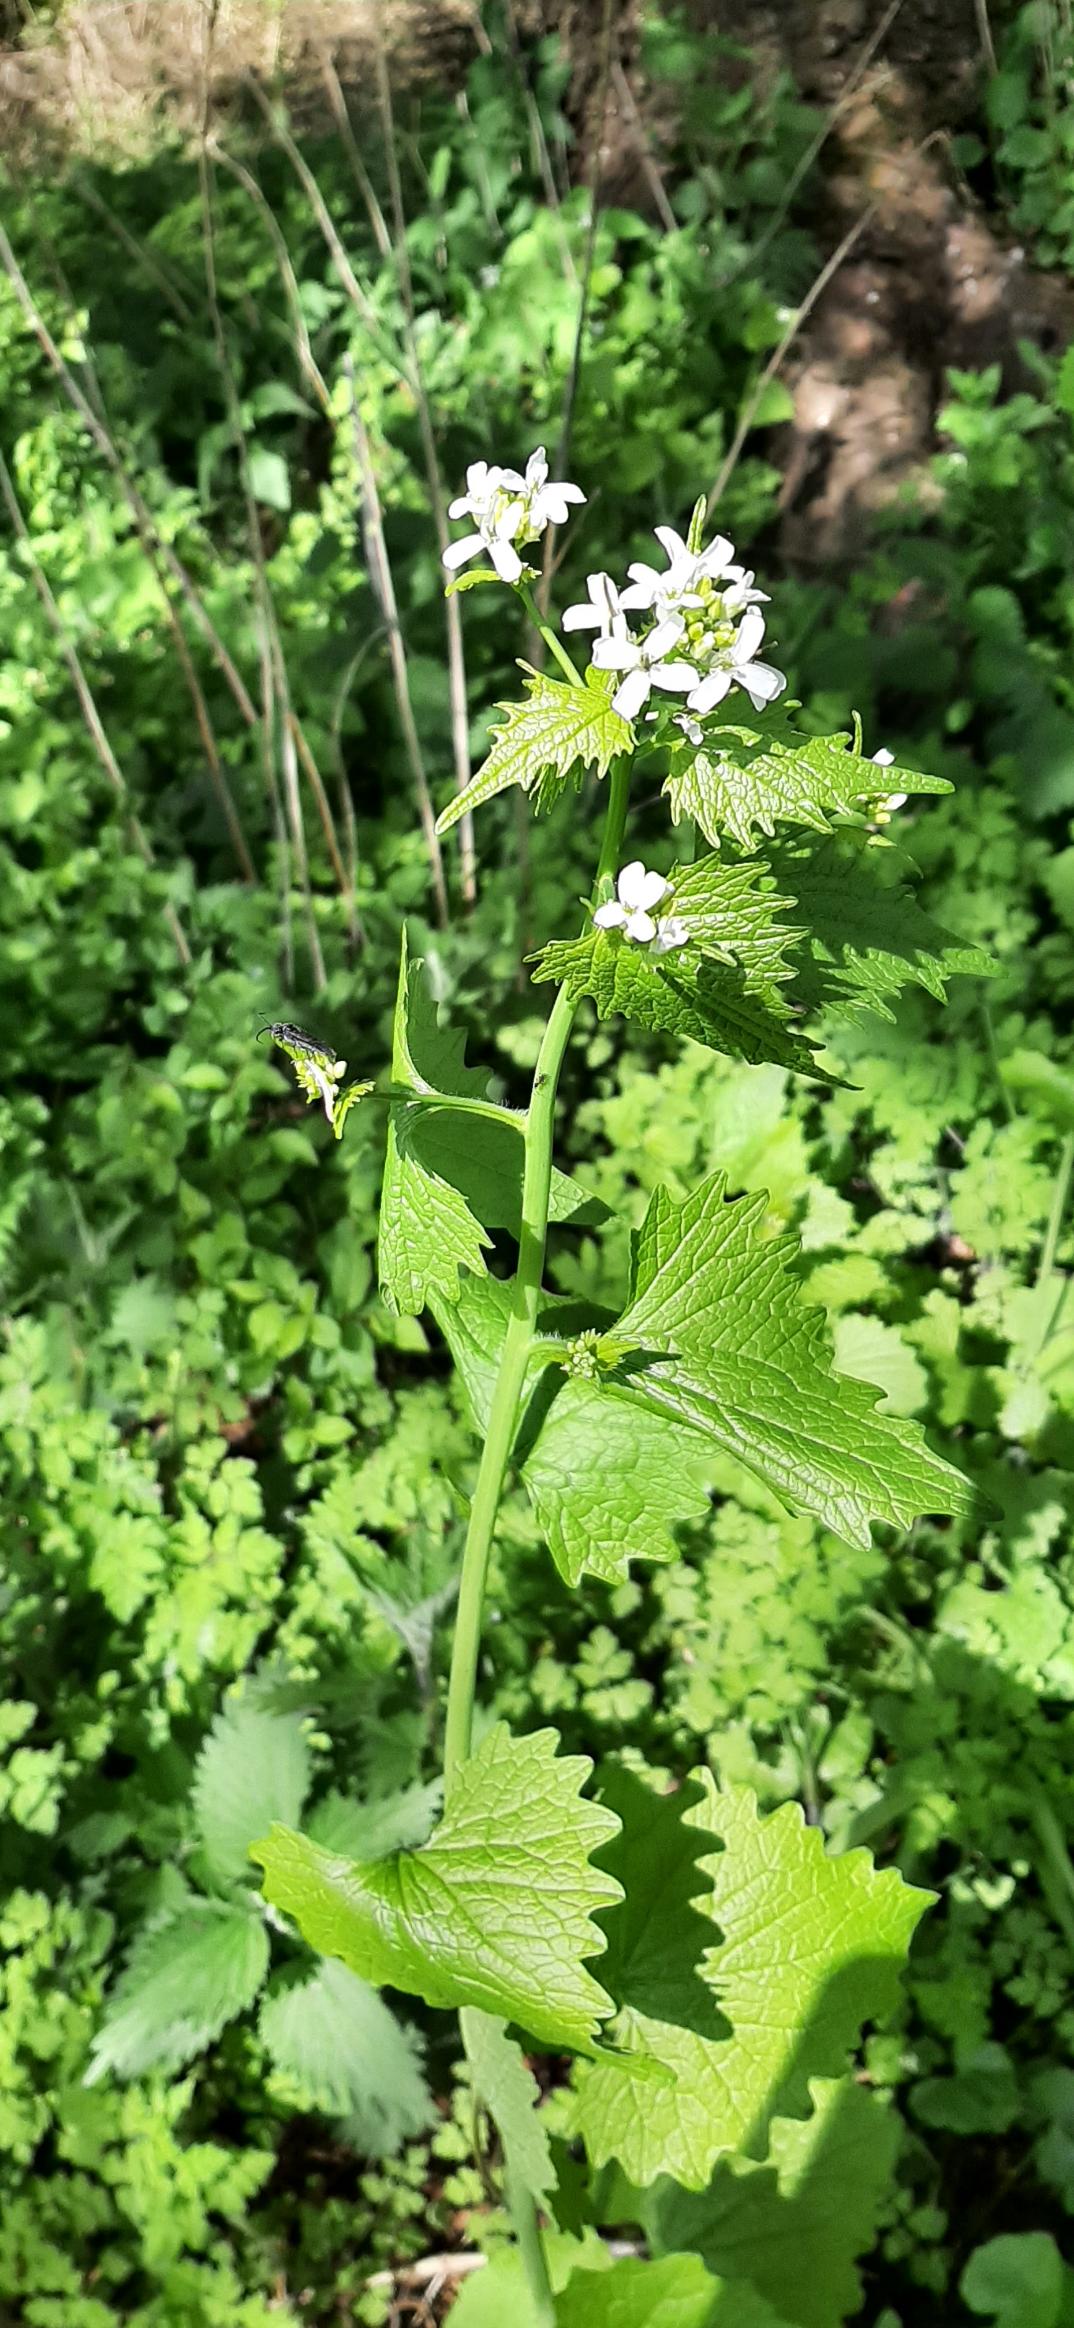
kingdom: Plantae
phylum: Tracheophyta
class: Magnoliopsida
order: Brassicales
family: Brassicaceae
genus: Alliaria
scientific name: Alliaria petiolata
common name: Løgkarse
